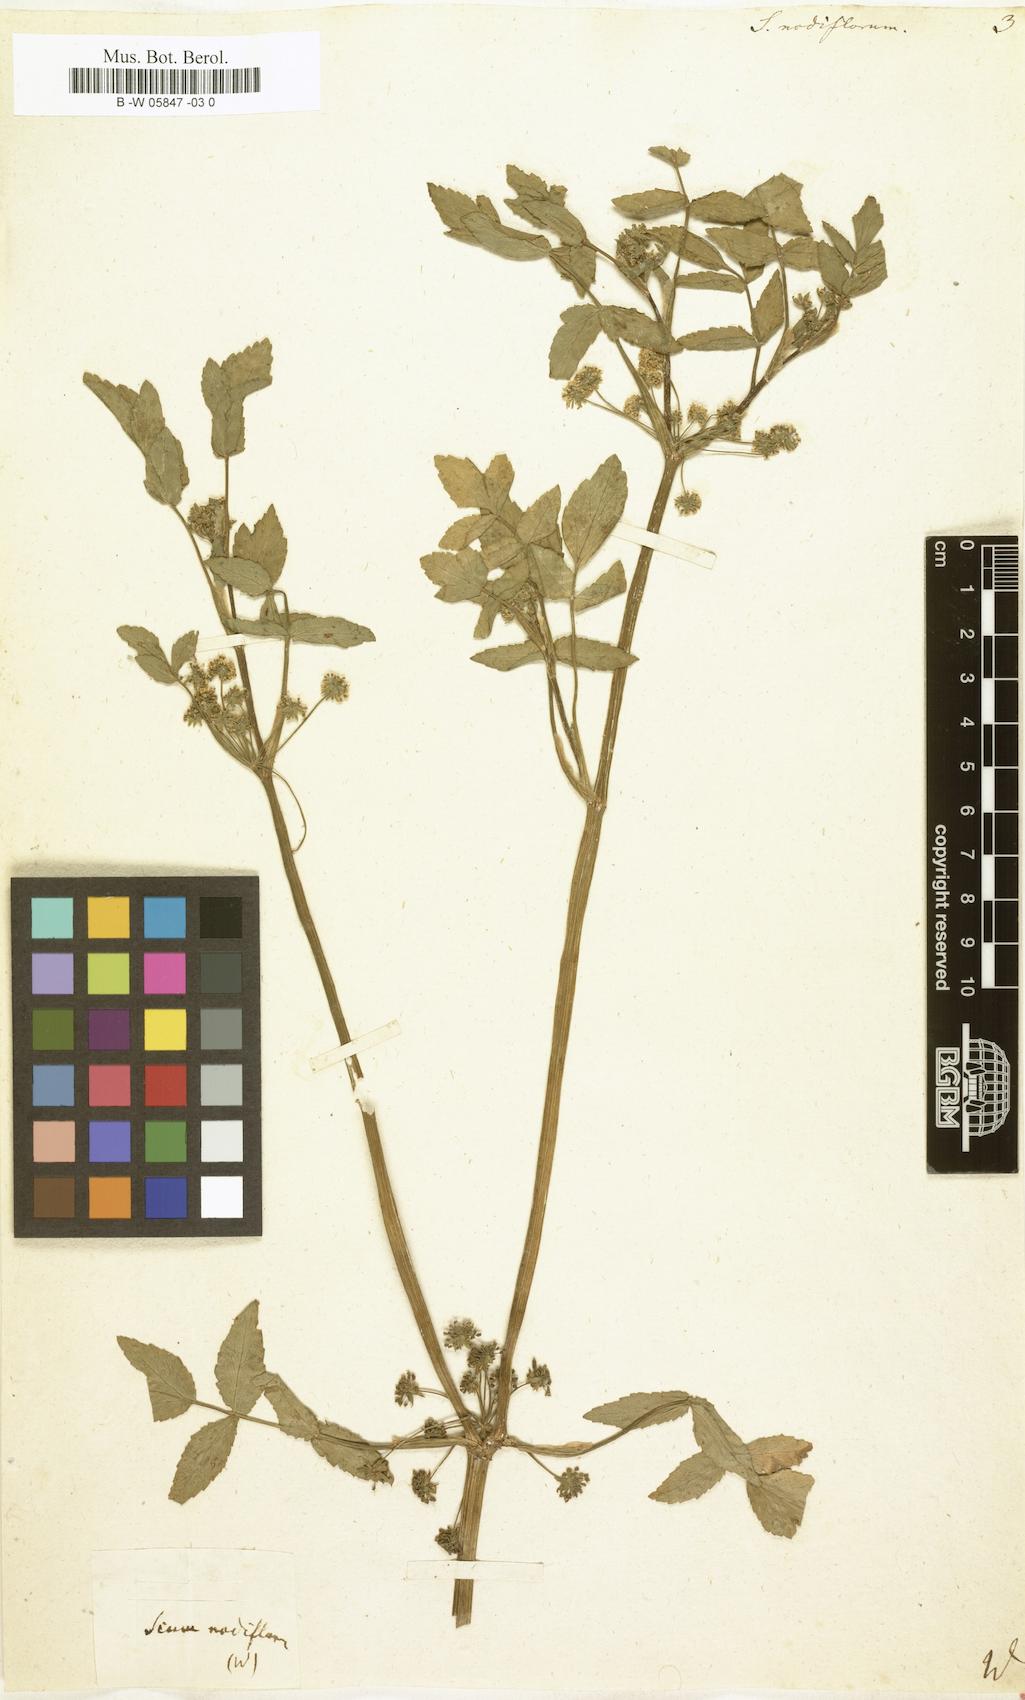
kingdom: Plantae
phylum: Tracheophyta
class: Magnoliopsida
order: Apiales
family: Apiaceae
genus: Helosciadium
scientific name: Helosciadium nodiflorum
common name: Fool's-watercress
